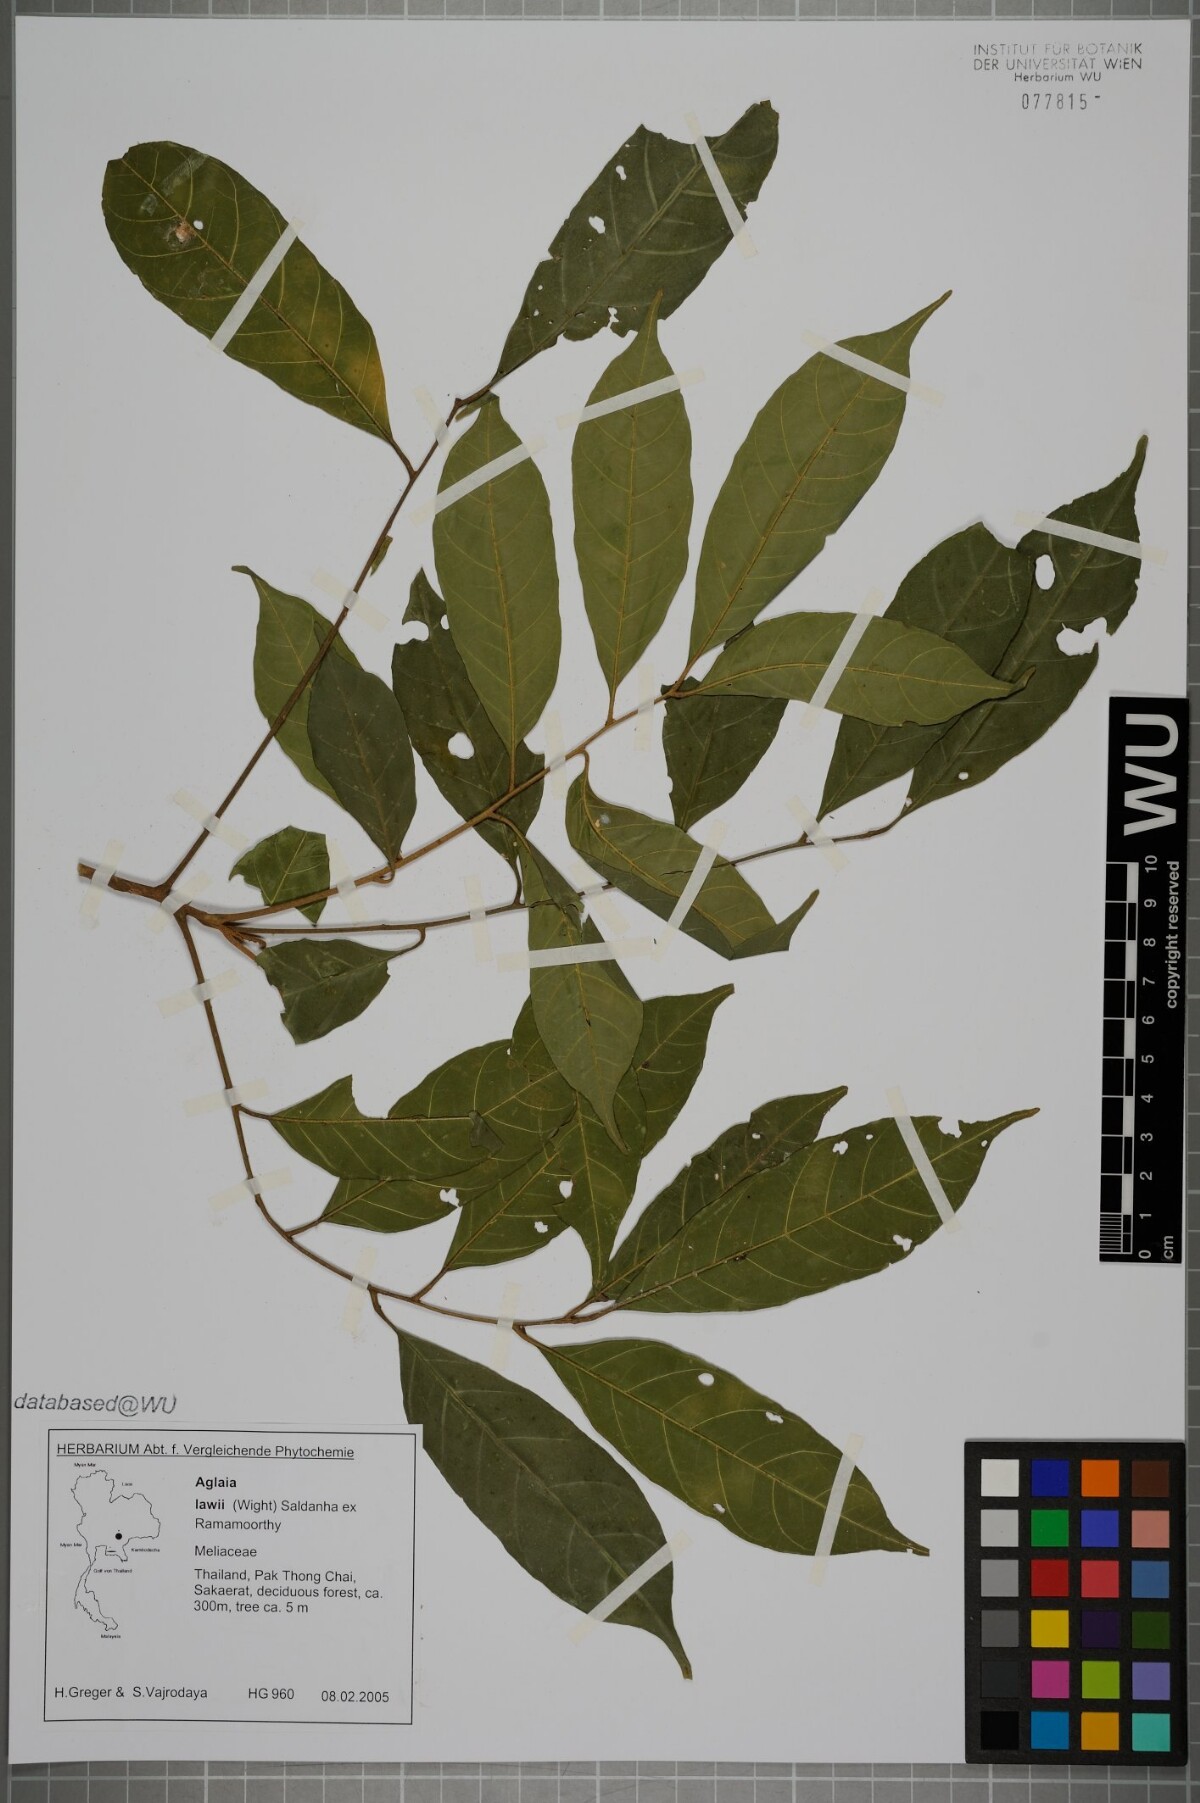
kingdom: Plantae
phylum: Tracheophyta
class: Magnoliopsida
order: Sapindales
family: Meliaceae
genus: Aglaia
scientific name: Aglaia lawii
